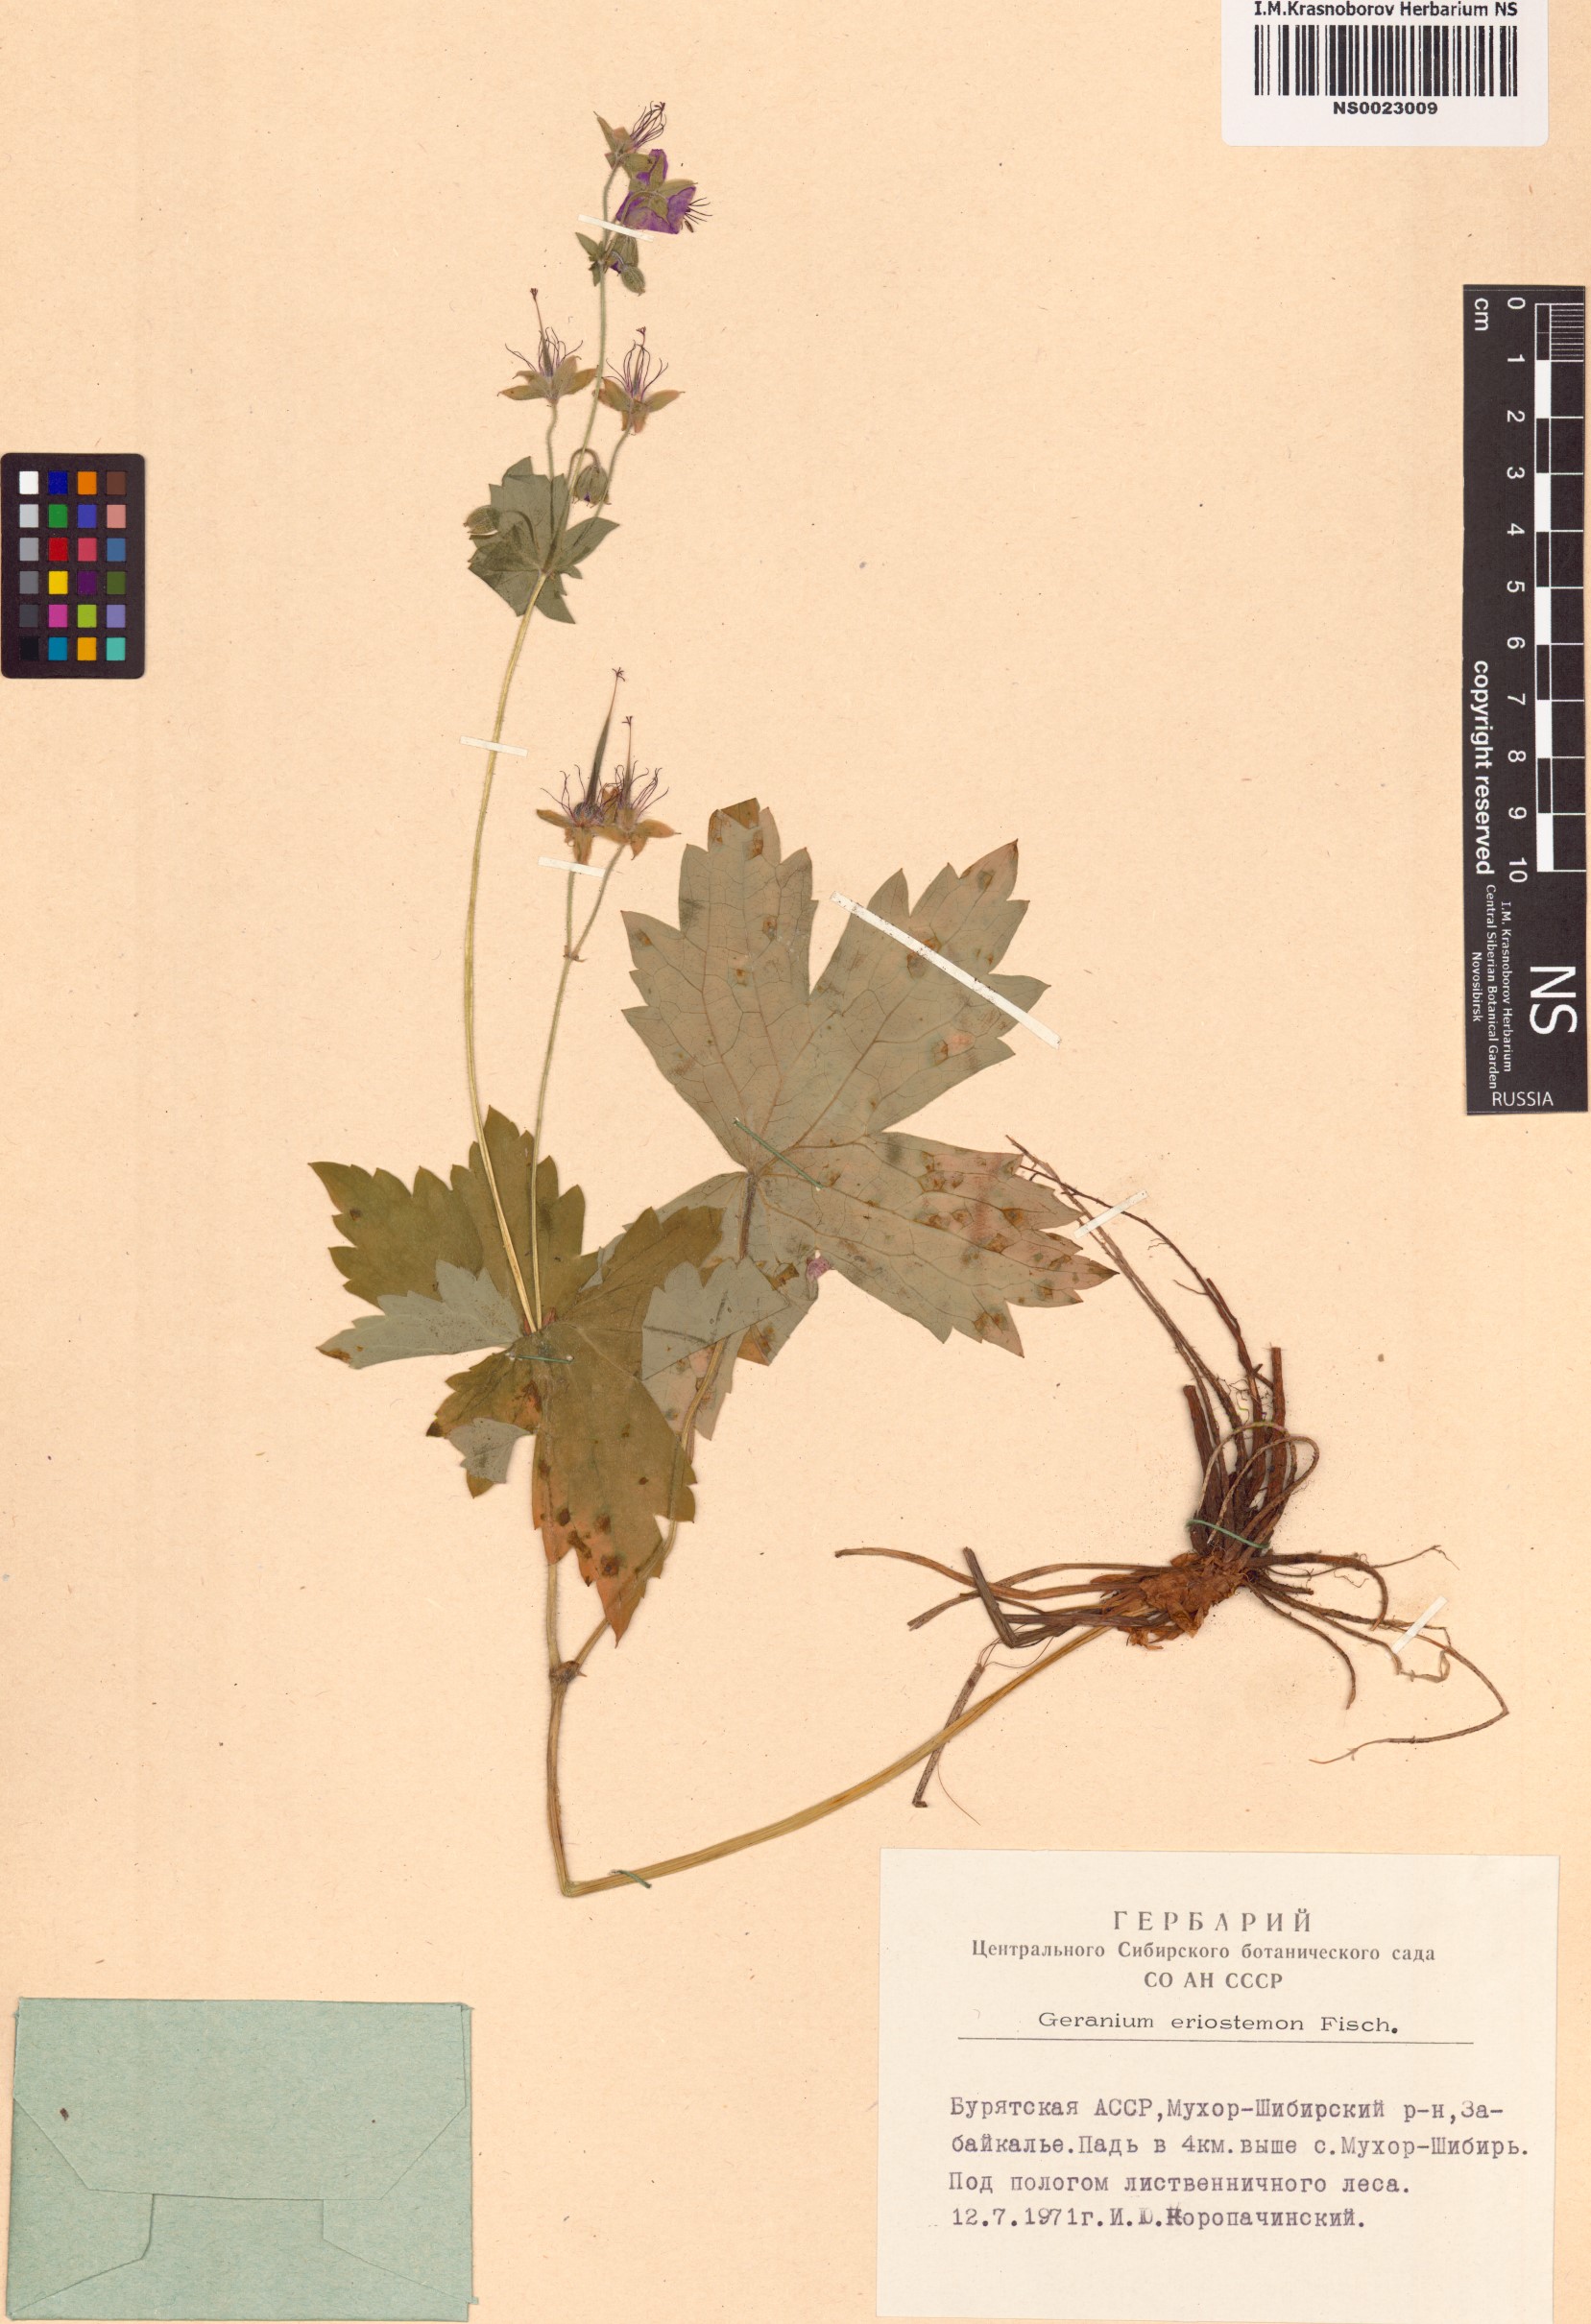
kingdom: Plantae
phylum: Tracheophyta
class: Magnoliopsida
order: Geraniales
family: Geraniaceae
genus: Geranium
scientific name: Geranium platyanthum
